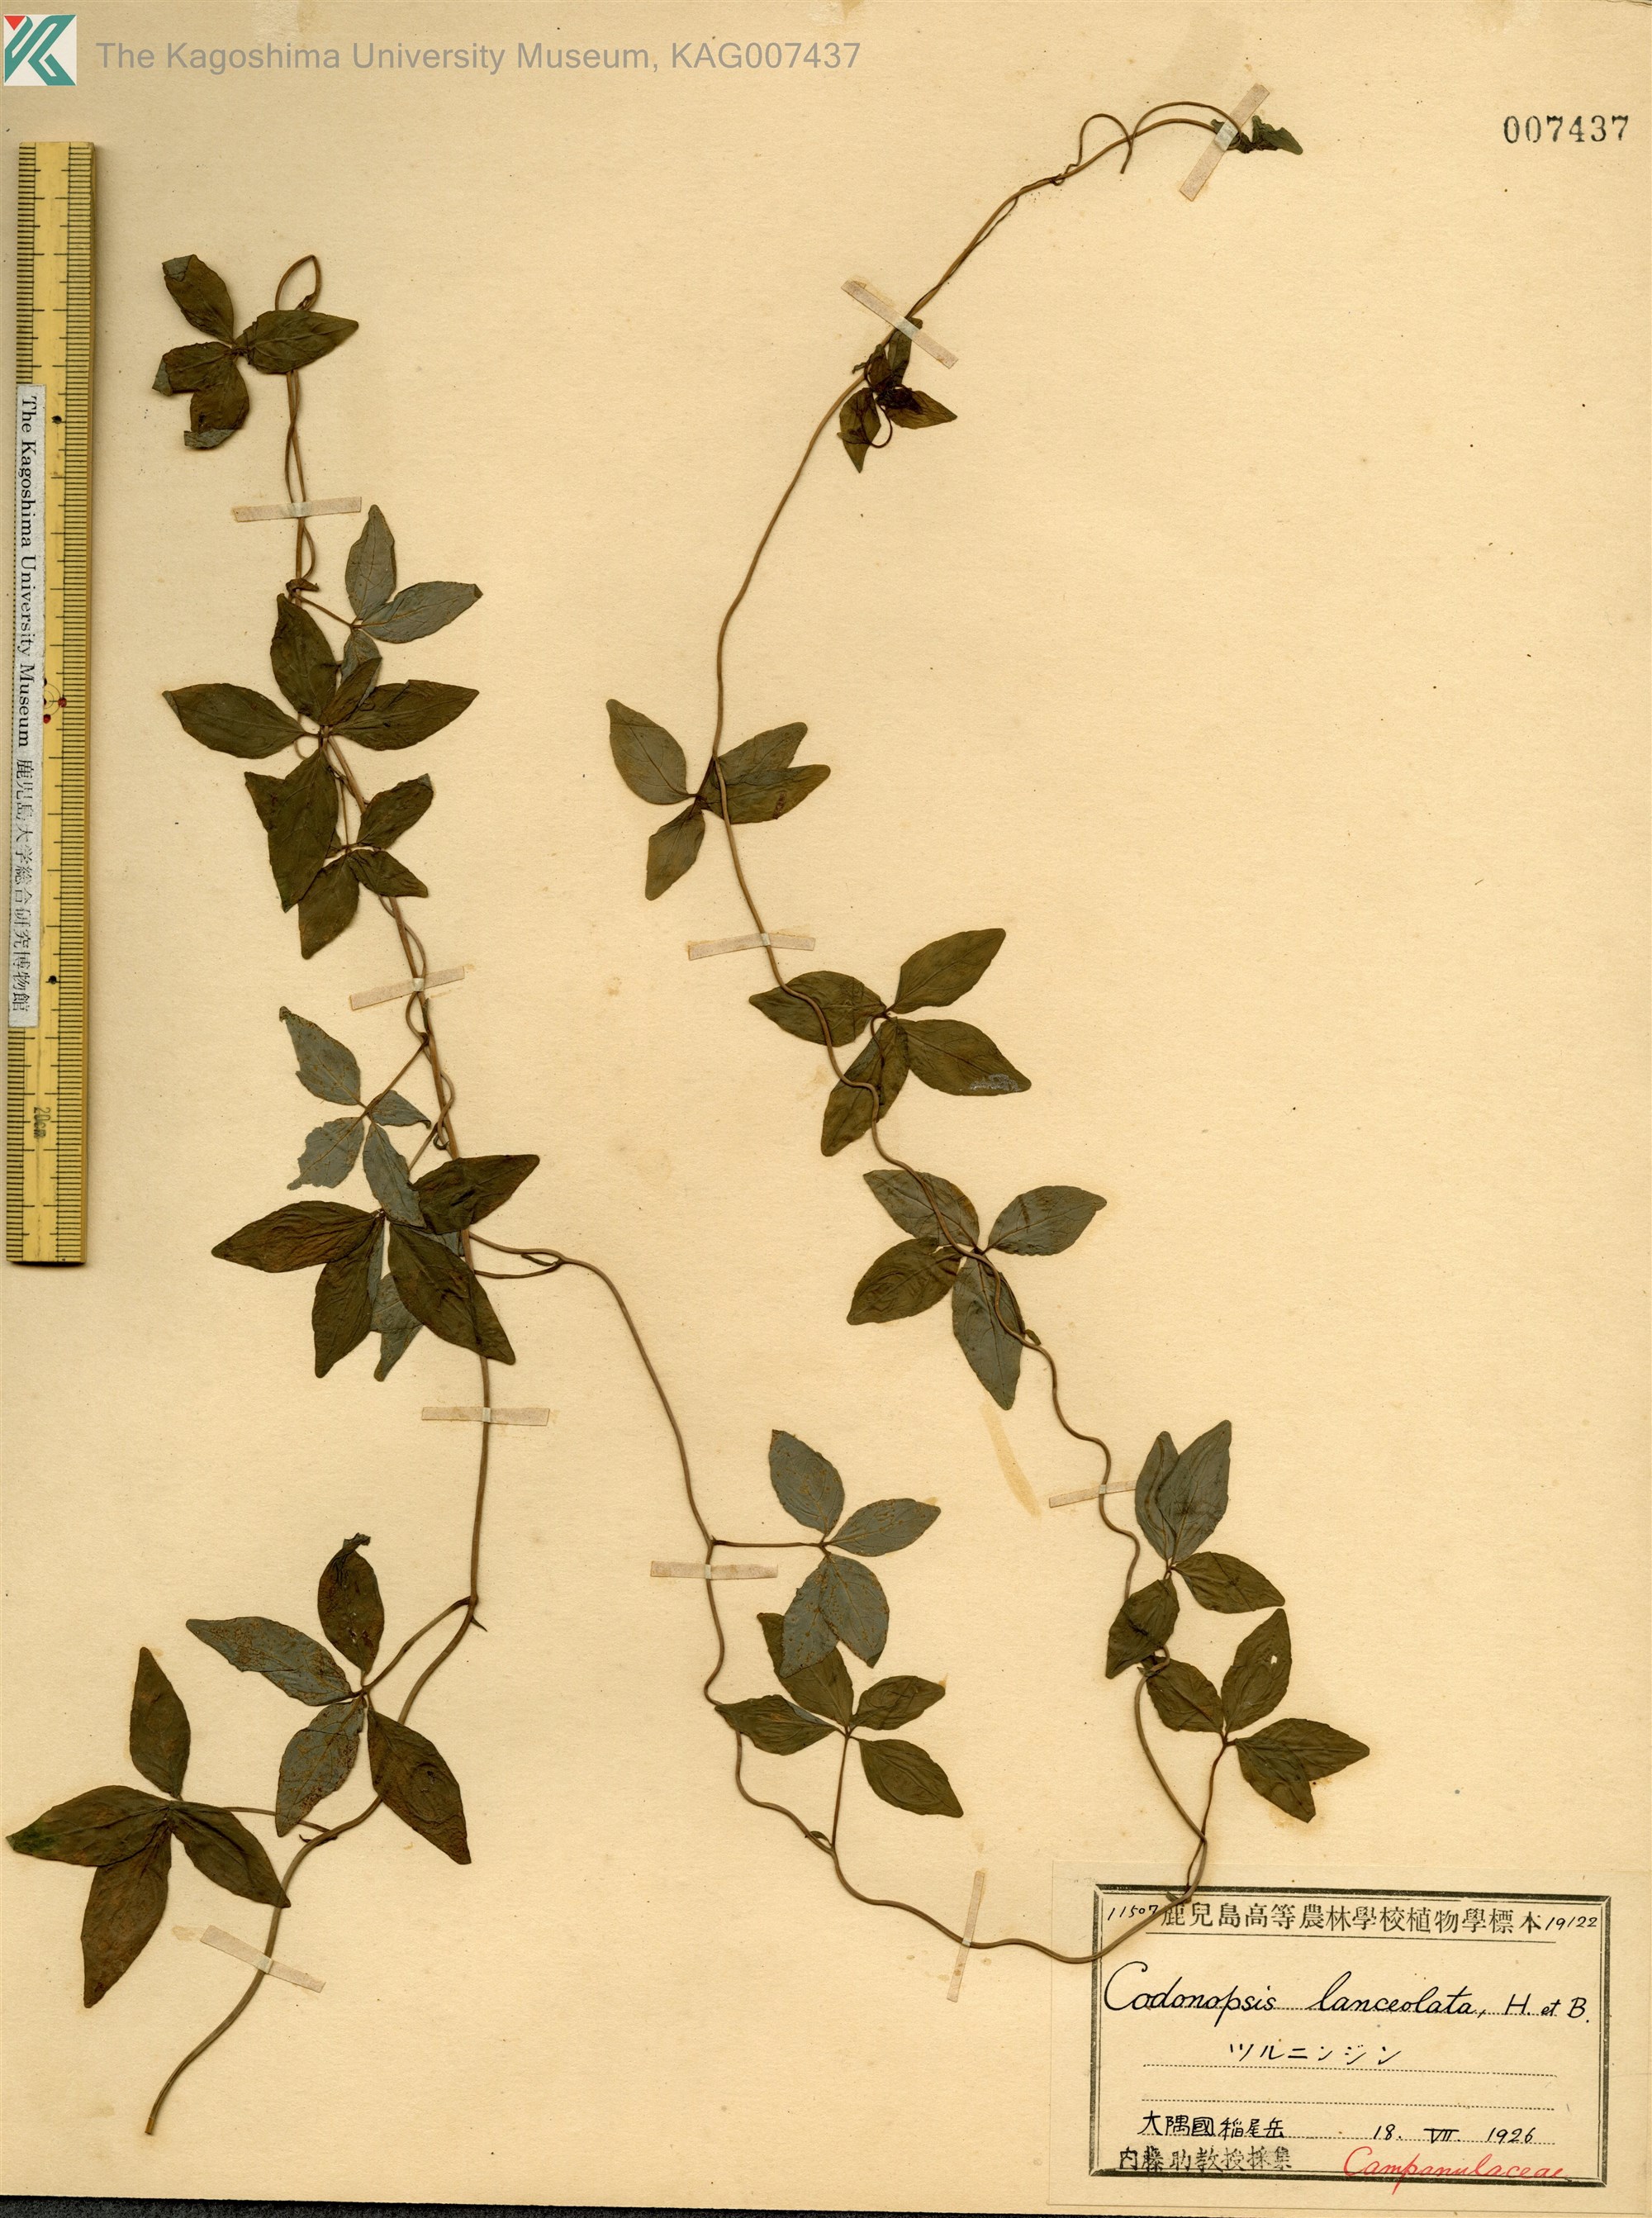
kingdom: Plantae
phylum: Tracheophyta
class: Magnoliopsida
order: Asterales
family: Campanulaceae
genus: Codonopsis
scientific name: Codonopsis lanceolata
